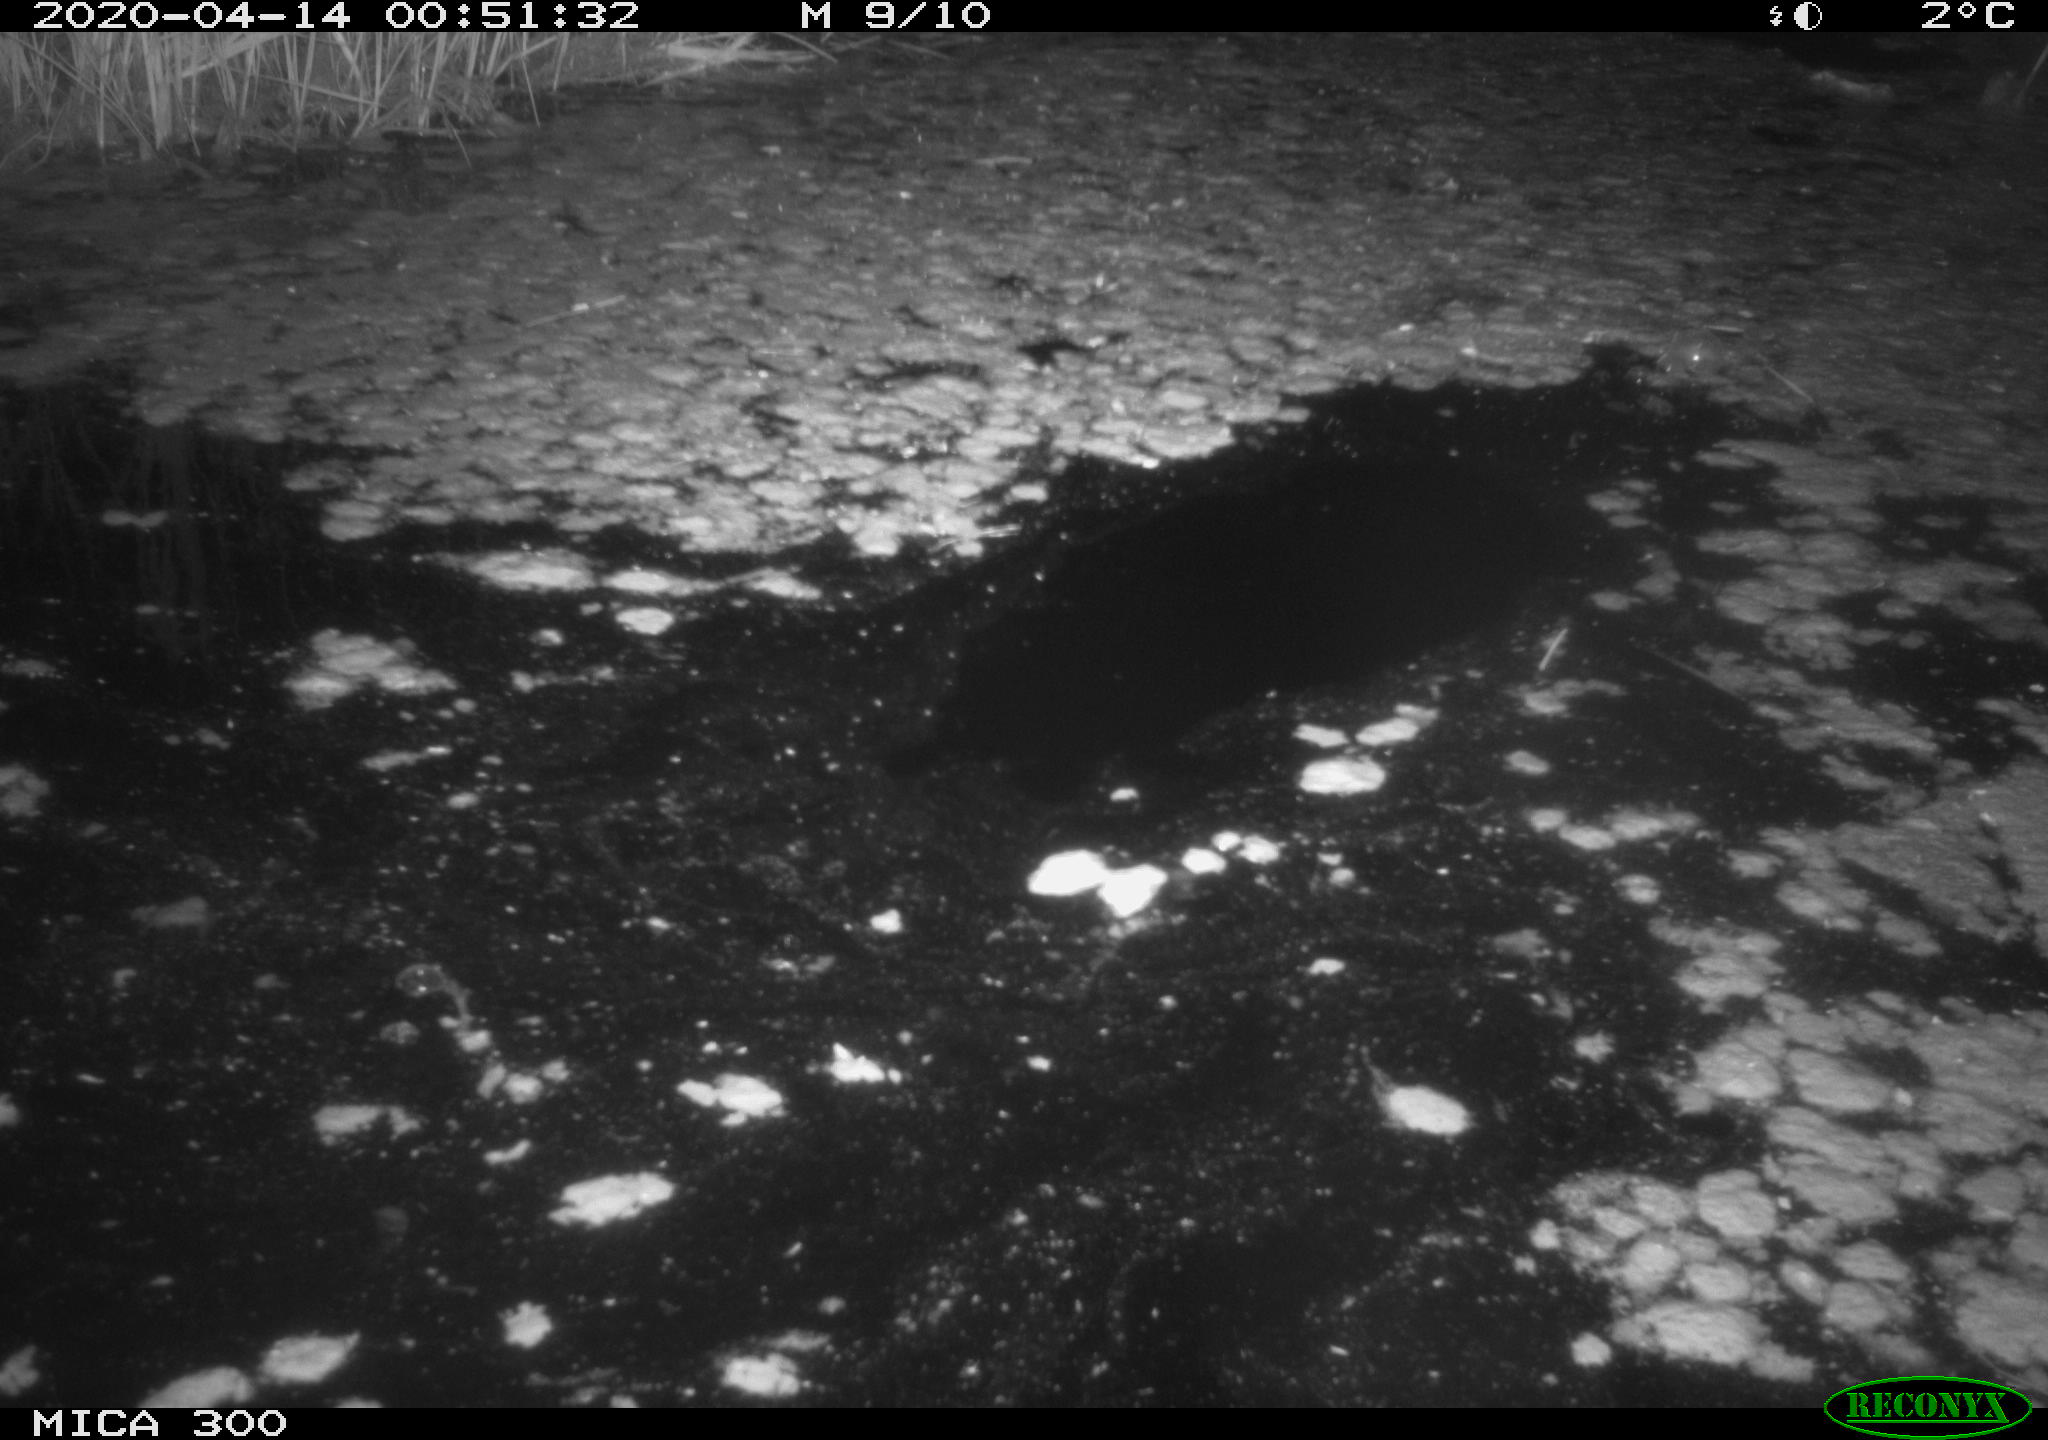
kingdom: Animalia
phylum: Chordata
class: Mammalia
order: Rodentia
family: Castoridae
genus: Castor
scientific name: Castor fiber
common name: Eurasian beaver
